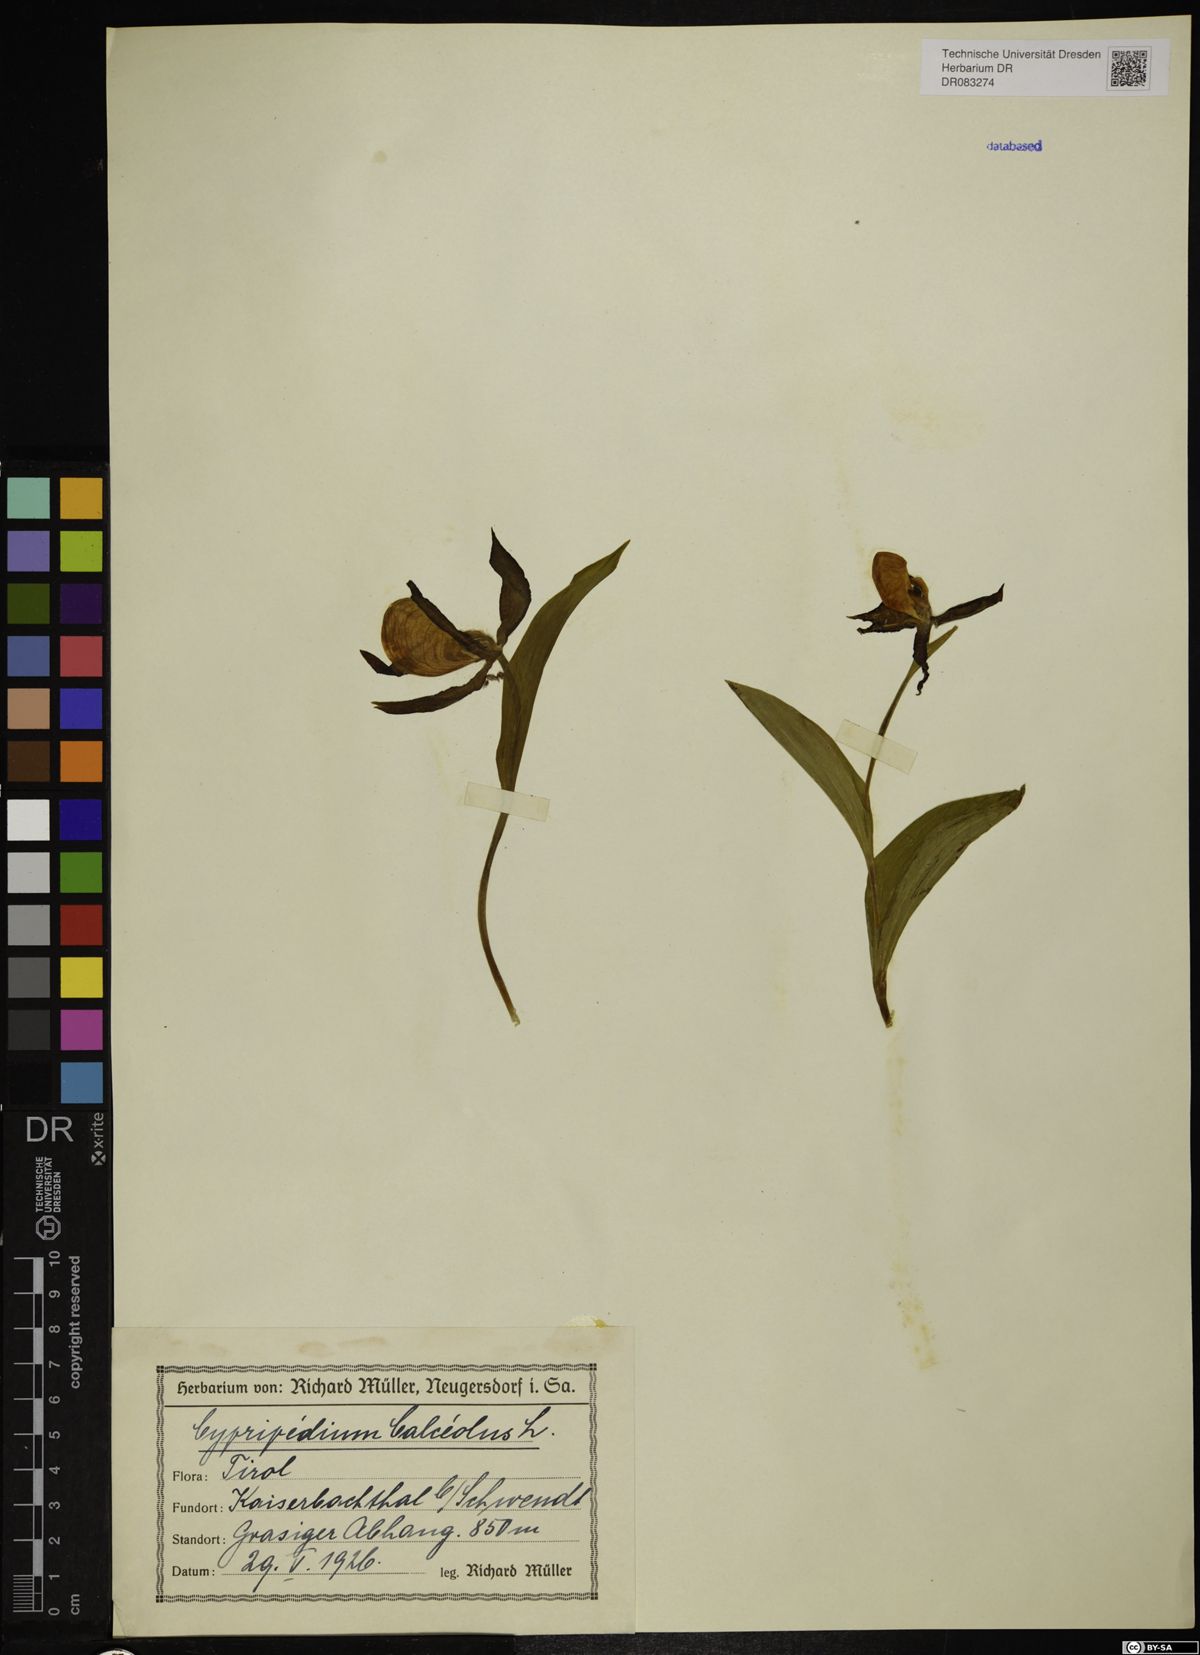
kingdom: Plantae
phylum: Tracheophyta
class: Liliopsida
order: Asparagales
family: Orchidaceae
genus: Cypripedium
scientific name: Cypripedium calceolus
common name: Lady's-slipper
